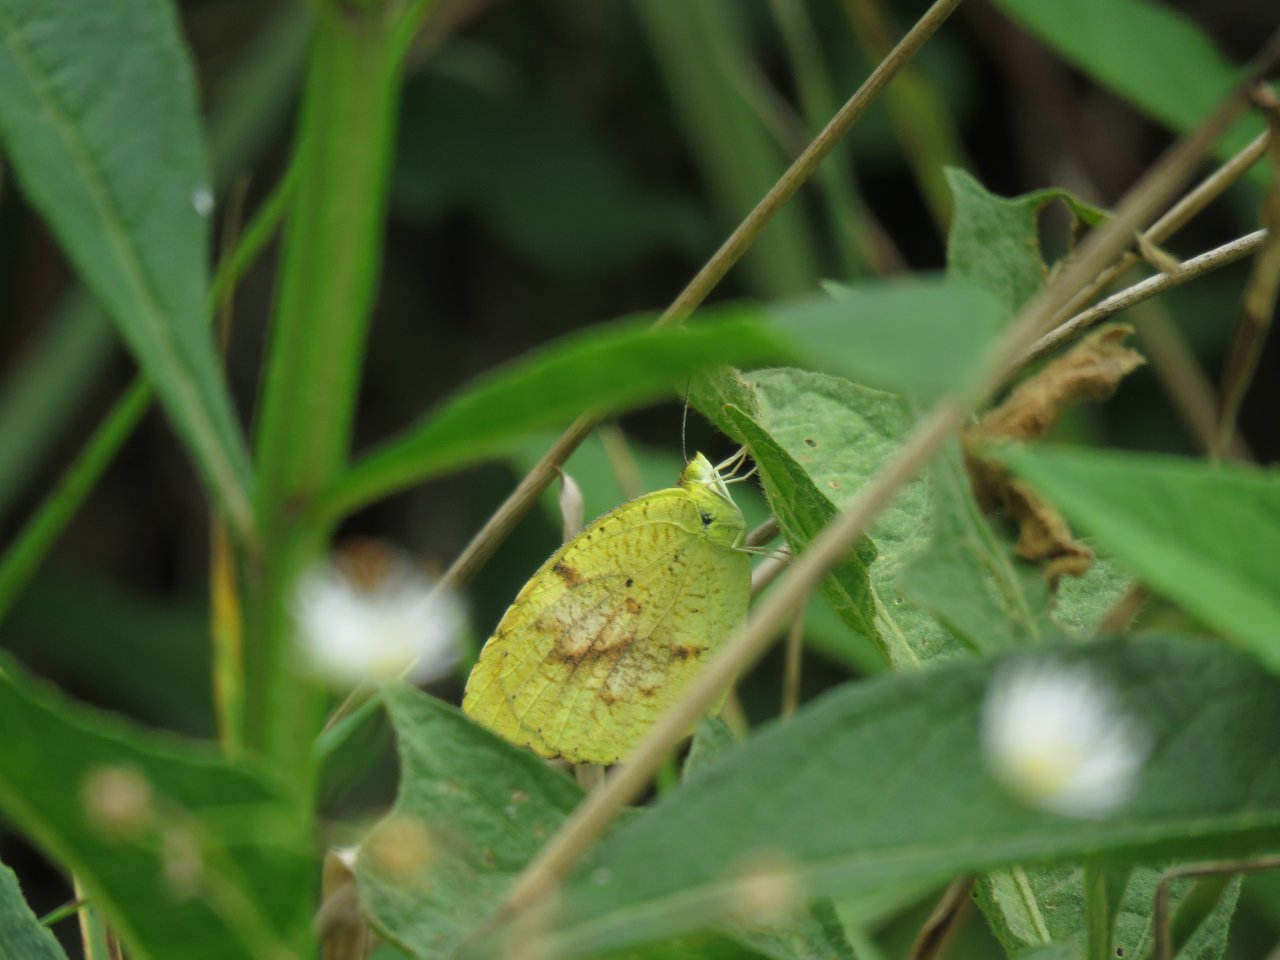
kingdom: Animalia
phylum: Arthropoda
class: Insecta
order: Lepidoptera
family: Pieridae
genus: Abaeis
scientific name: Abaeis nicippe
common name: Sleepy Orange
